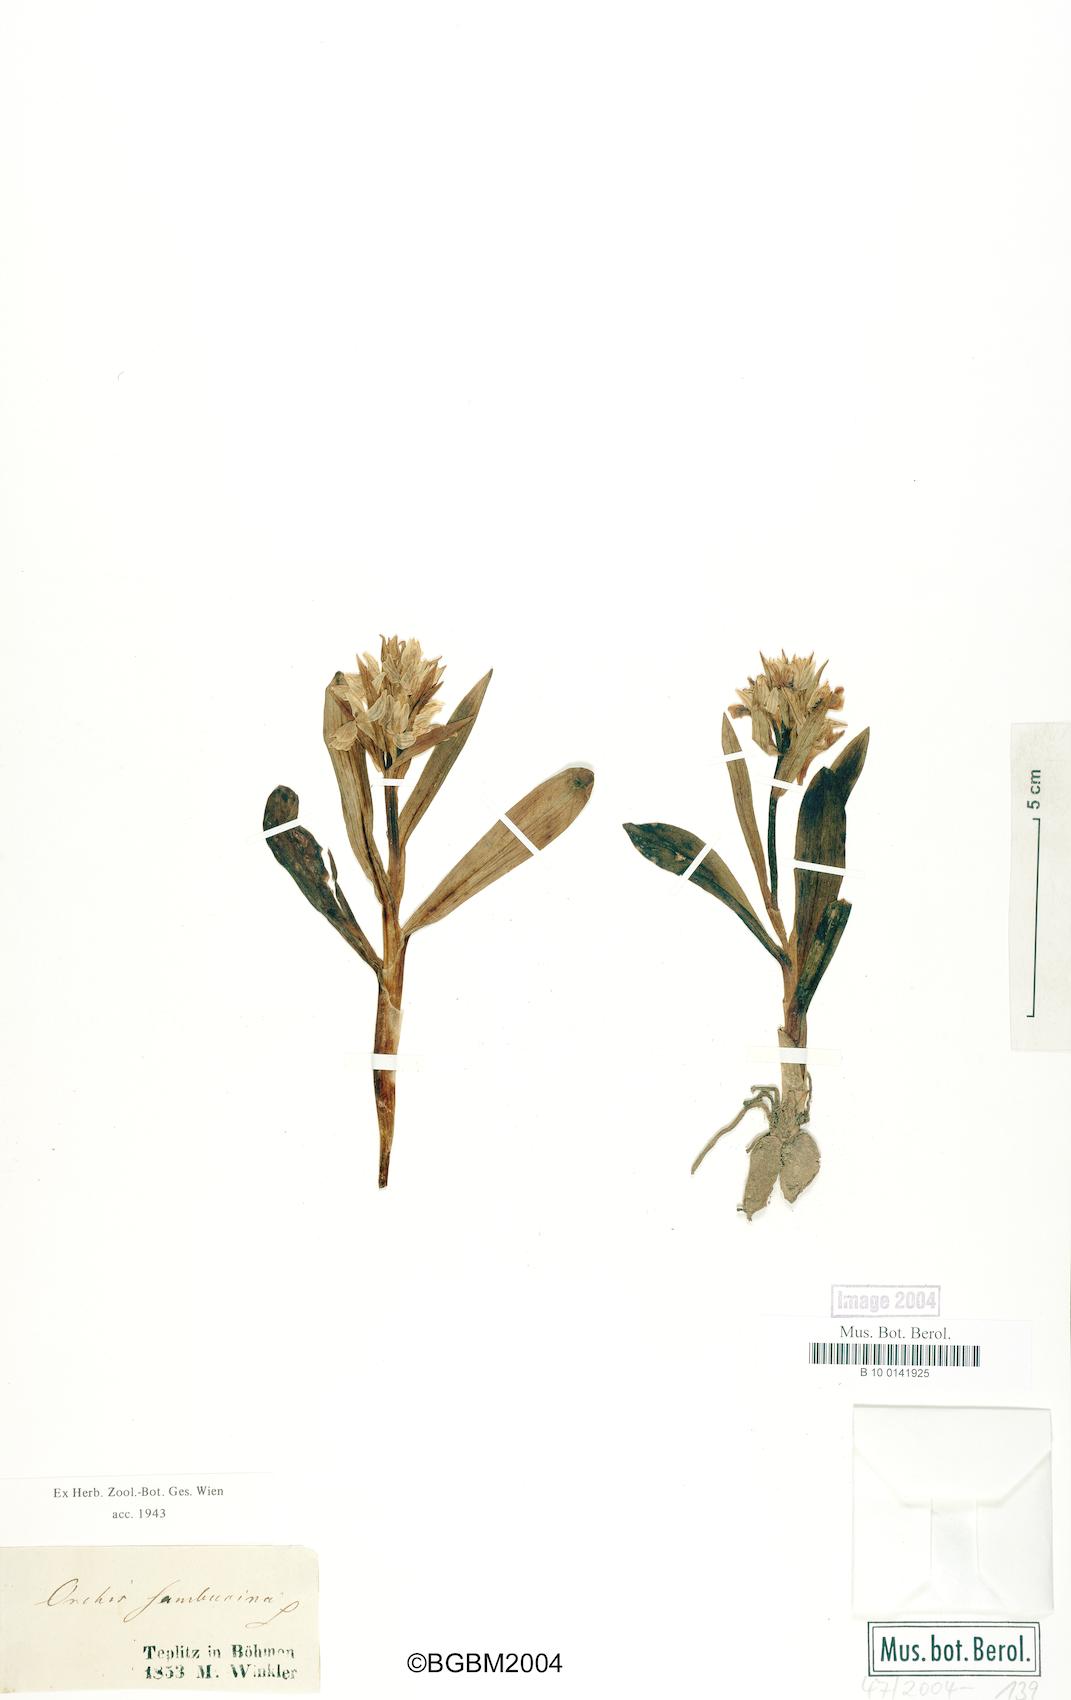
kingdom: Plantae
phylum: Tracheophyta
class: Liliopsida
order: Asparagales
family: Orchidaceae
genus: Dactylorhiza
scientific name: Dactylorhiza sambucina
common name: Elder-flowered orchid
